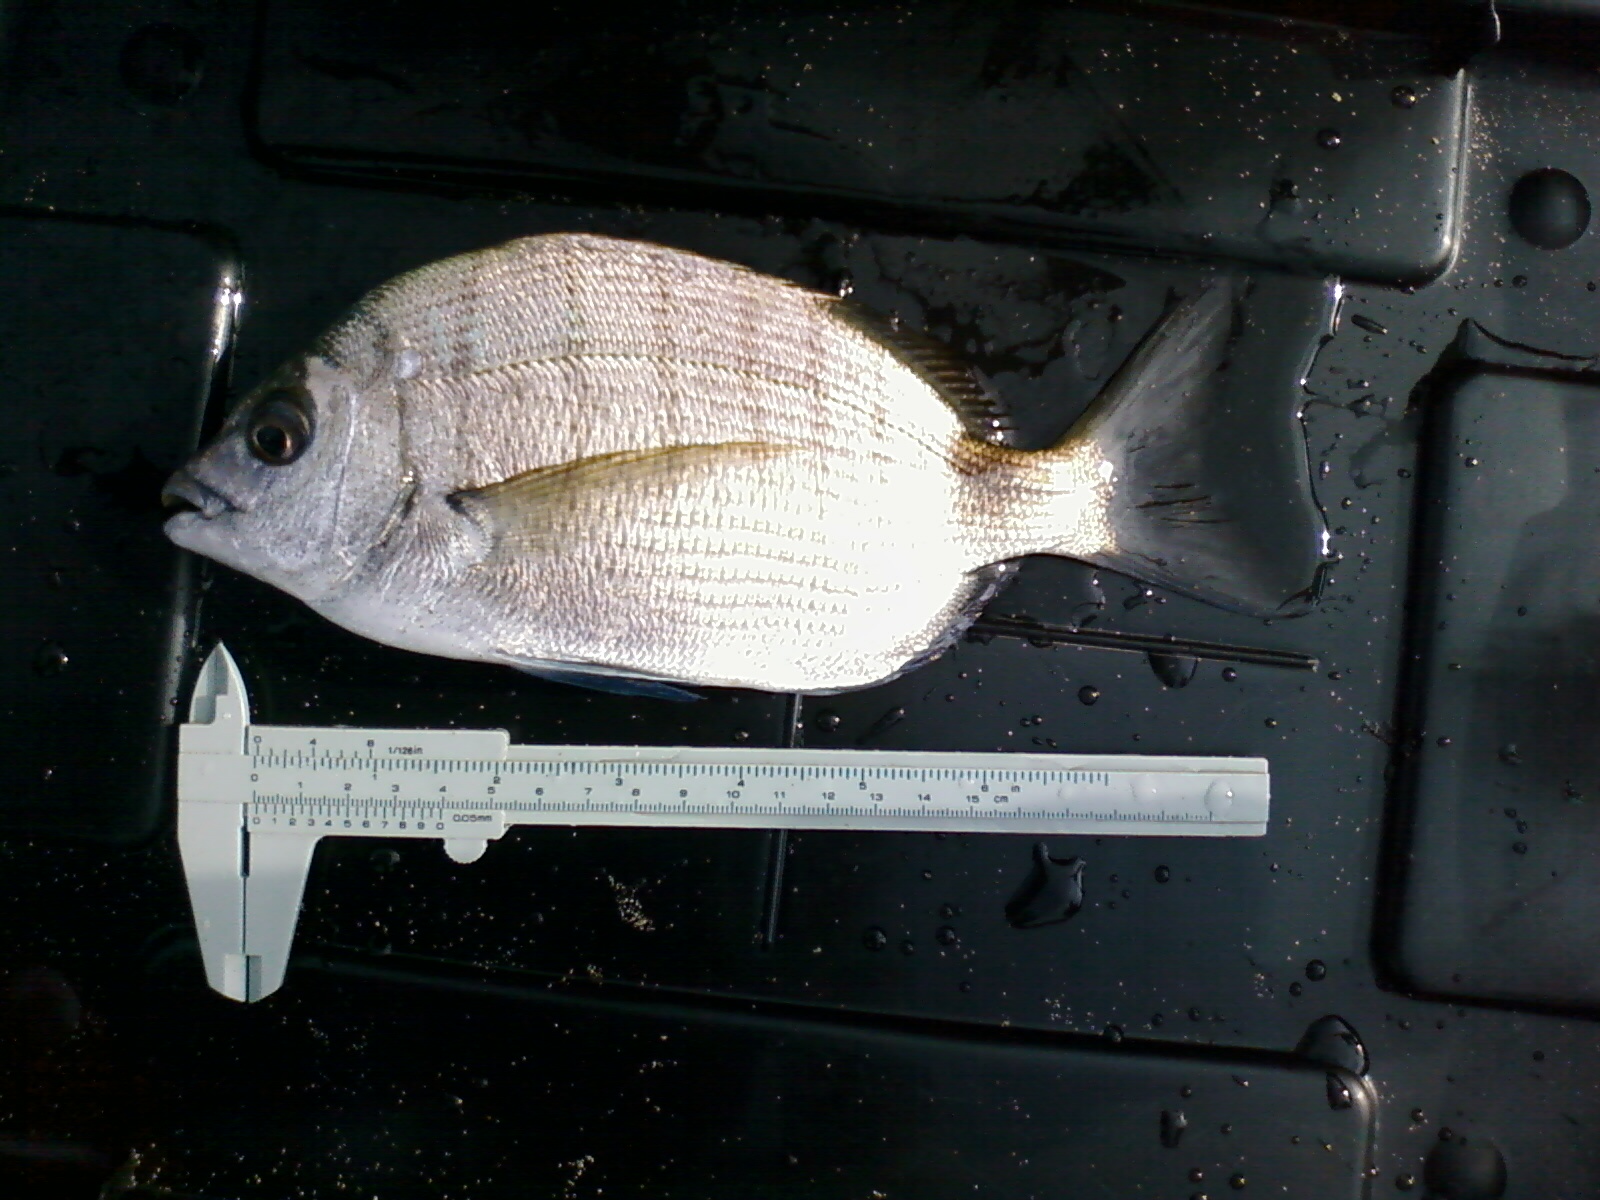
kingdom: Animalia
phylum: Chordata
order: Perciformes
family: Sparidae
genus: Diplodus
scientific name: Diplodus capensis
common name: Blacktail
